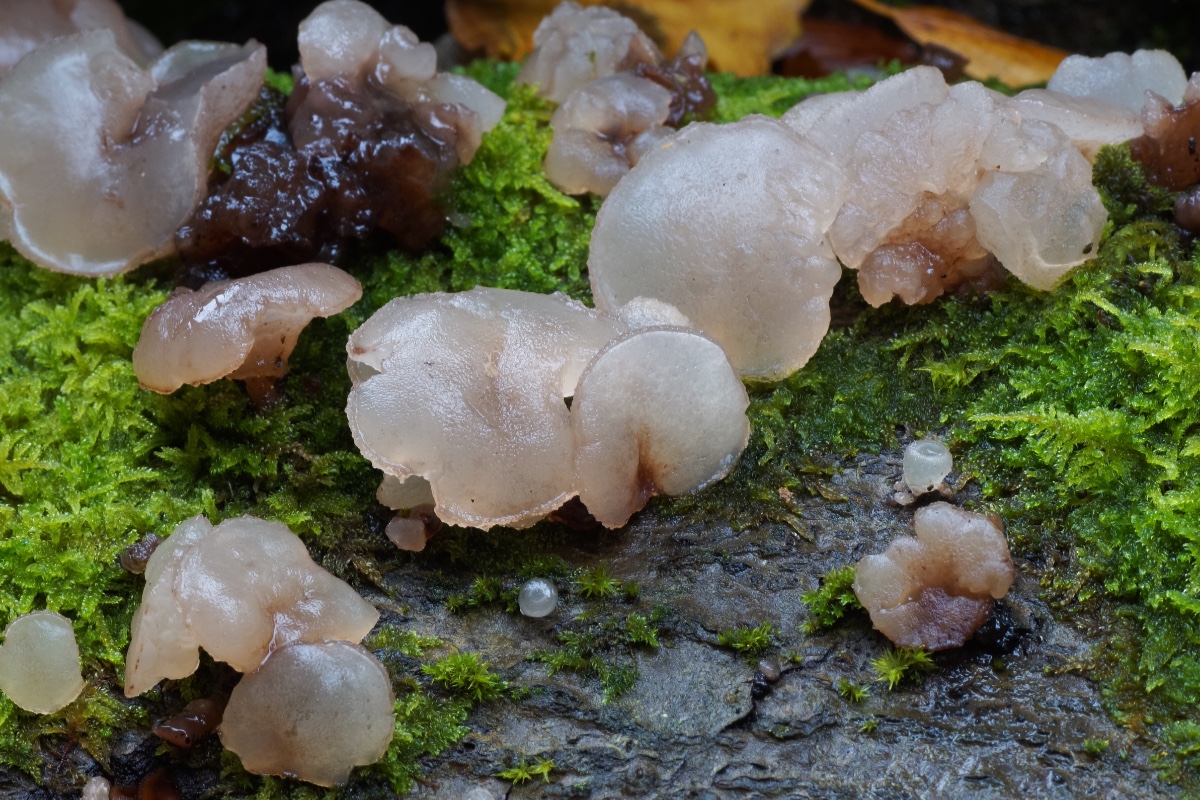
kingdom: Fungi
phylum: Ascomycota
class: Leotiomycetes
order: Helotiales
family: Gelatinodiscaceae
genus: Neobulgaria
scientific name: Neobulgaria pura
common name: bleg bævreskive
